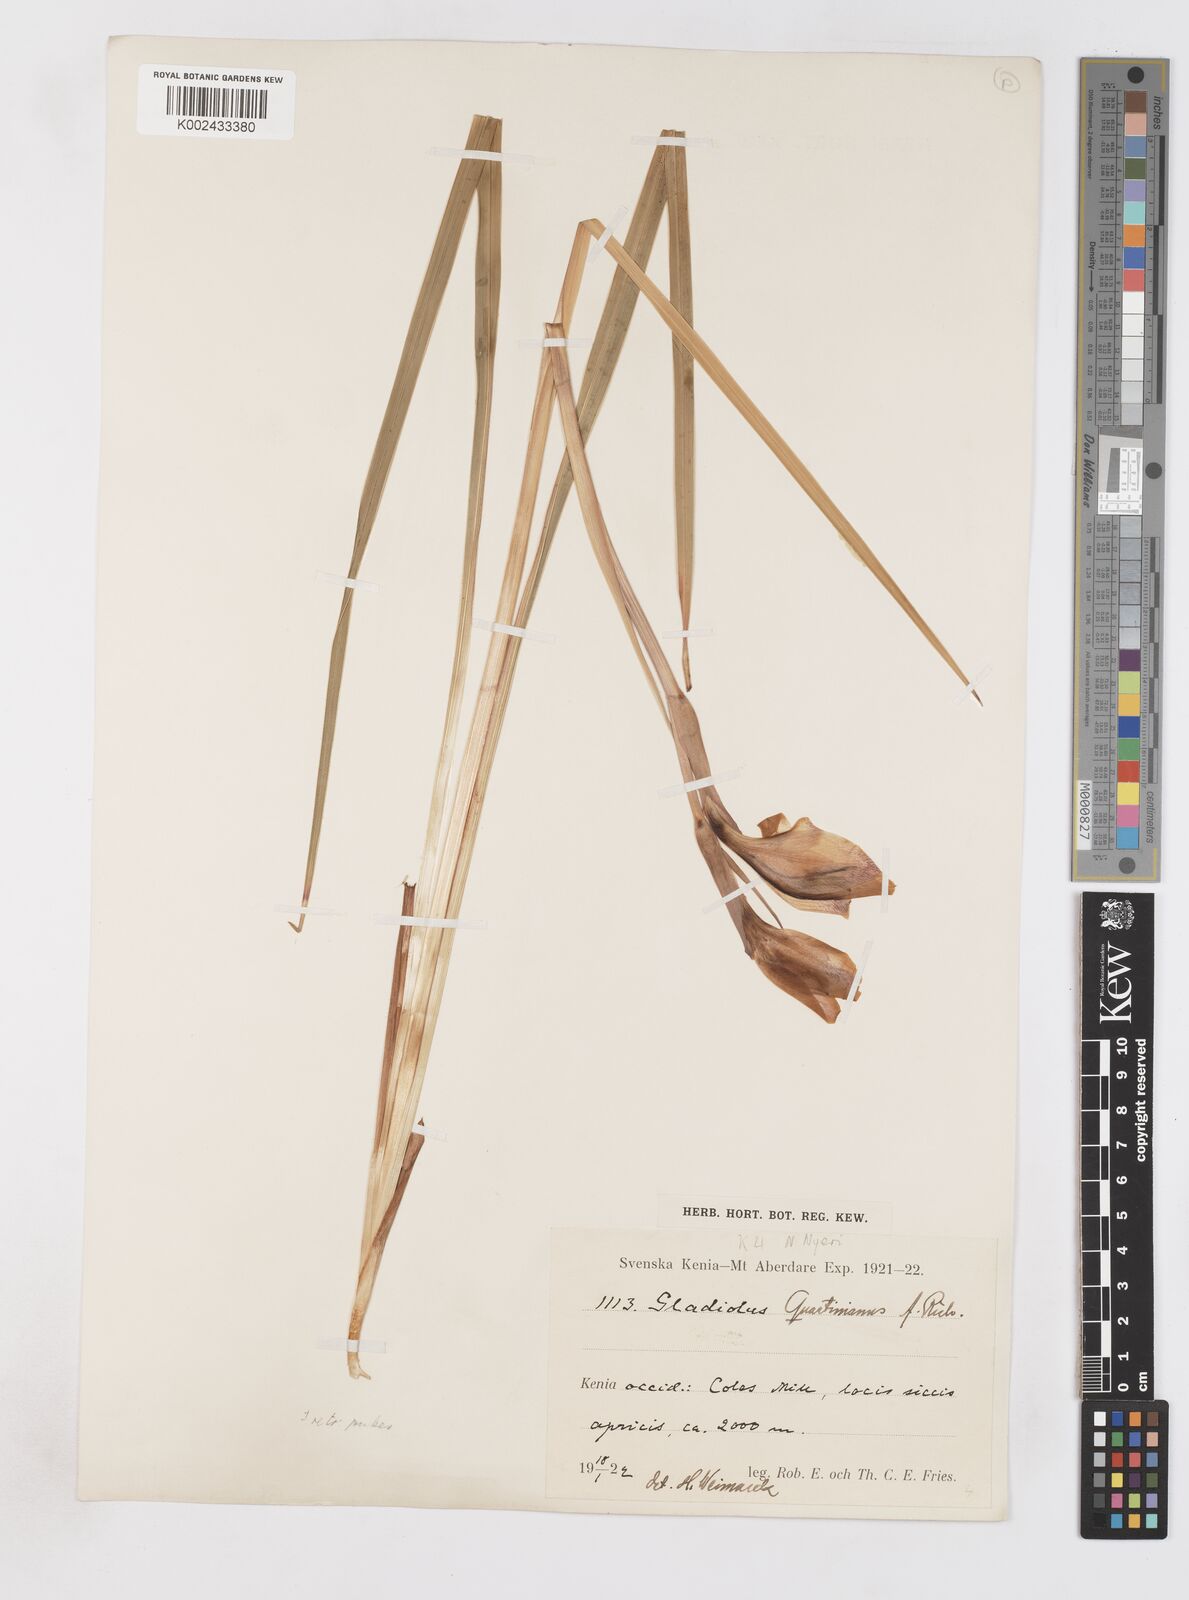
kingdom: Plantae
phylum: Tracheophyta
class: Liliopsida
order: Asparagales
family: Iridaceae
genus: Gladiolus
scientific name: Gladiolus dalenii
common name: Cornflag
